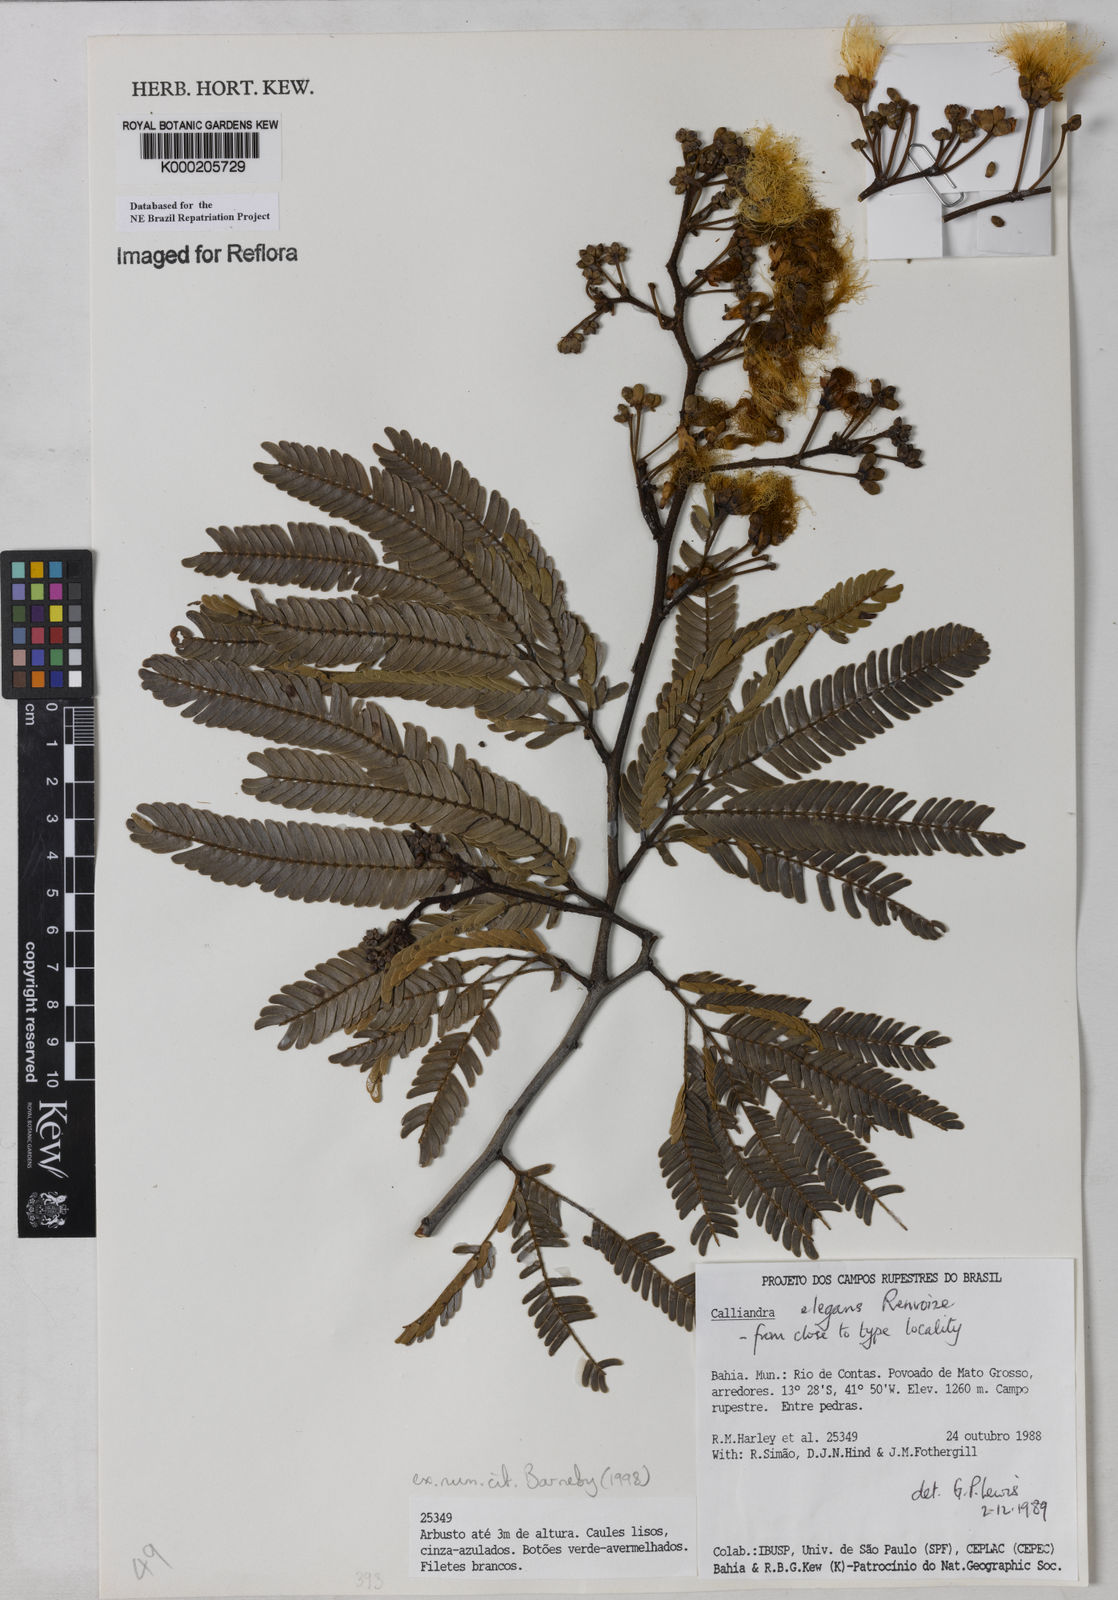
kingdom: Plantae
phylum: Tracheophyta
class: Magnoliopsida
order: Fabales
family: Fabaceae
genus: Calliandra
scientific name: Calliandra elegans
